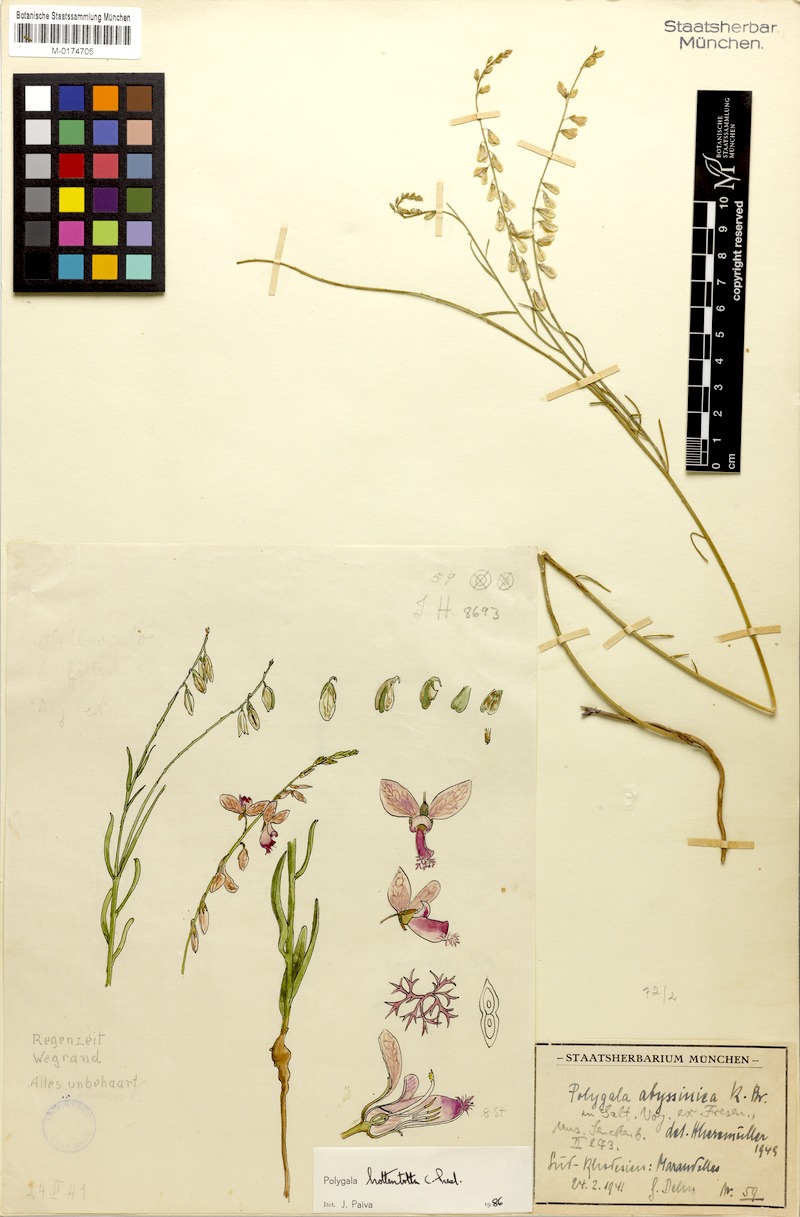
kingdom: Plantae
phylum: Tracheophyta
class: Magnoliopsida
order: Fabales
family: Polygalaceae
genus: Polygala
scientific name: Polygala hottentotta
